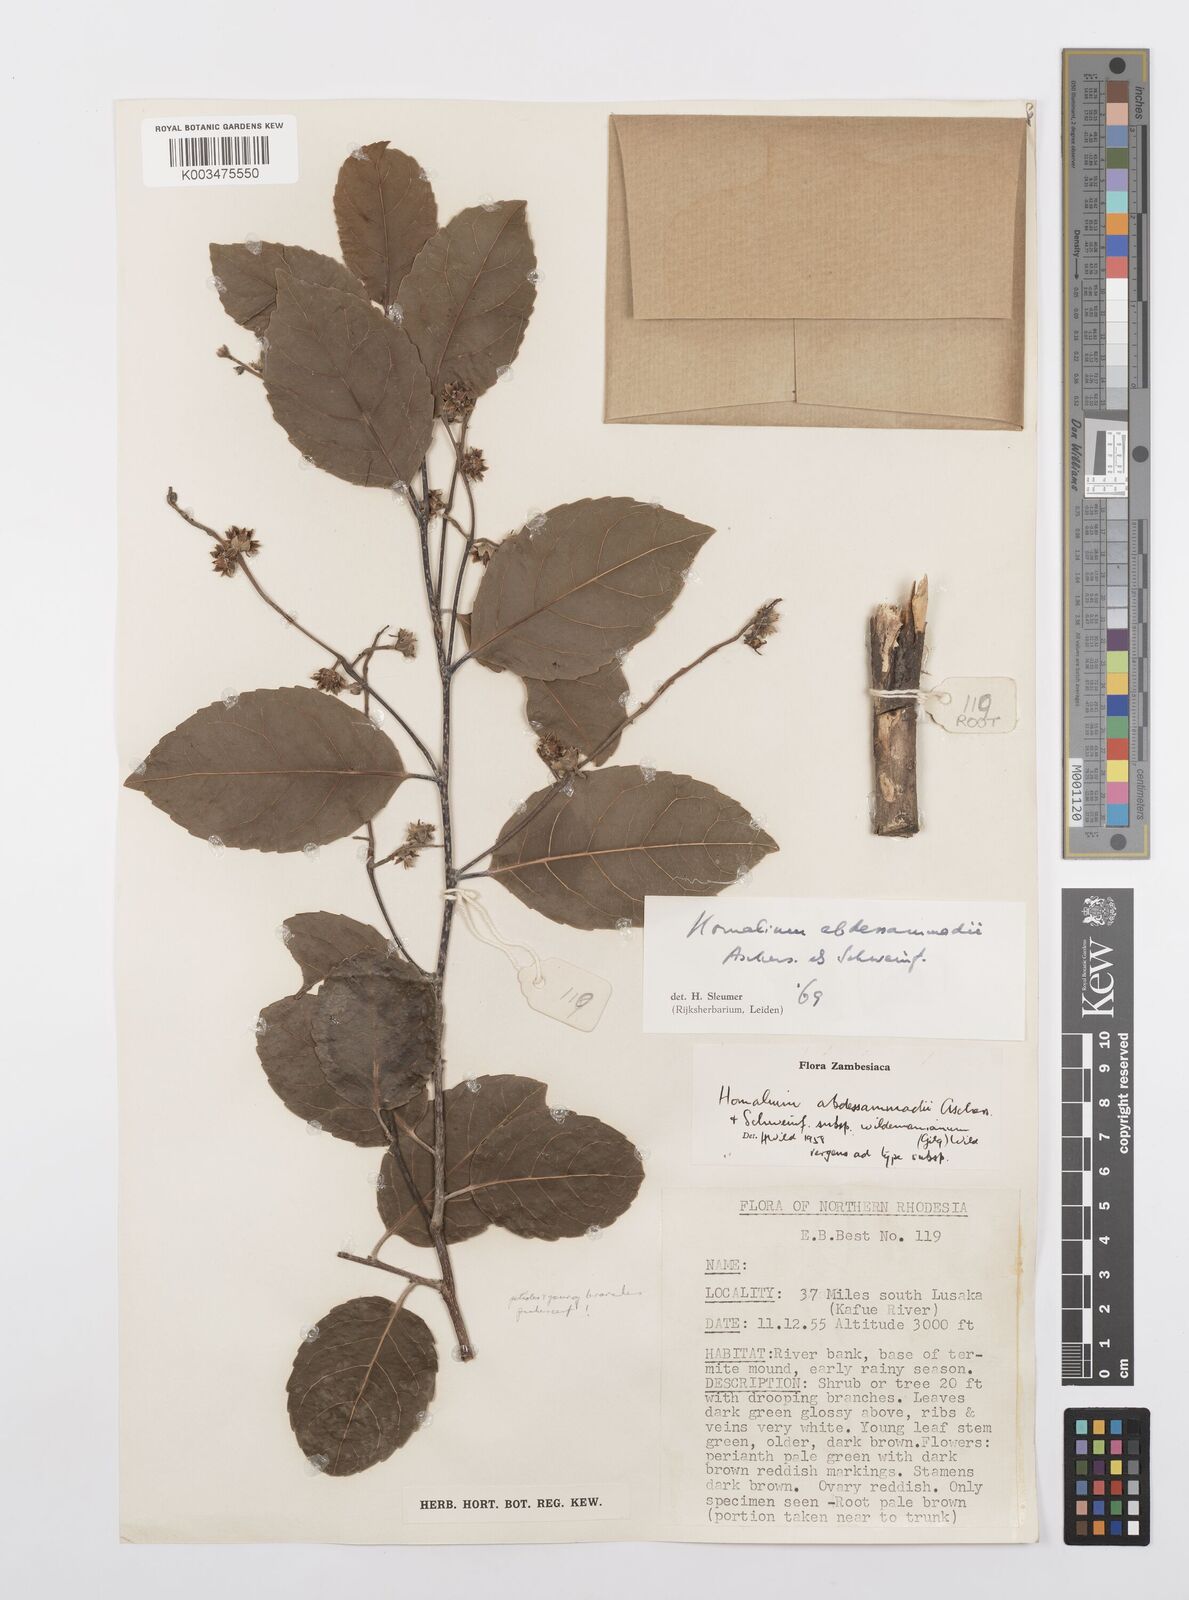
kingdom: Plantae
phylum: Tracheophyta
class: Magnoliopsida
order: Malpighiales
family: Salicaceae
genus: Homalium
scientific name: Homalium abdessammadii
